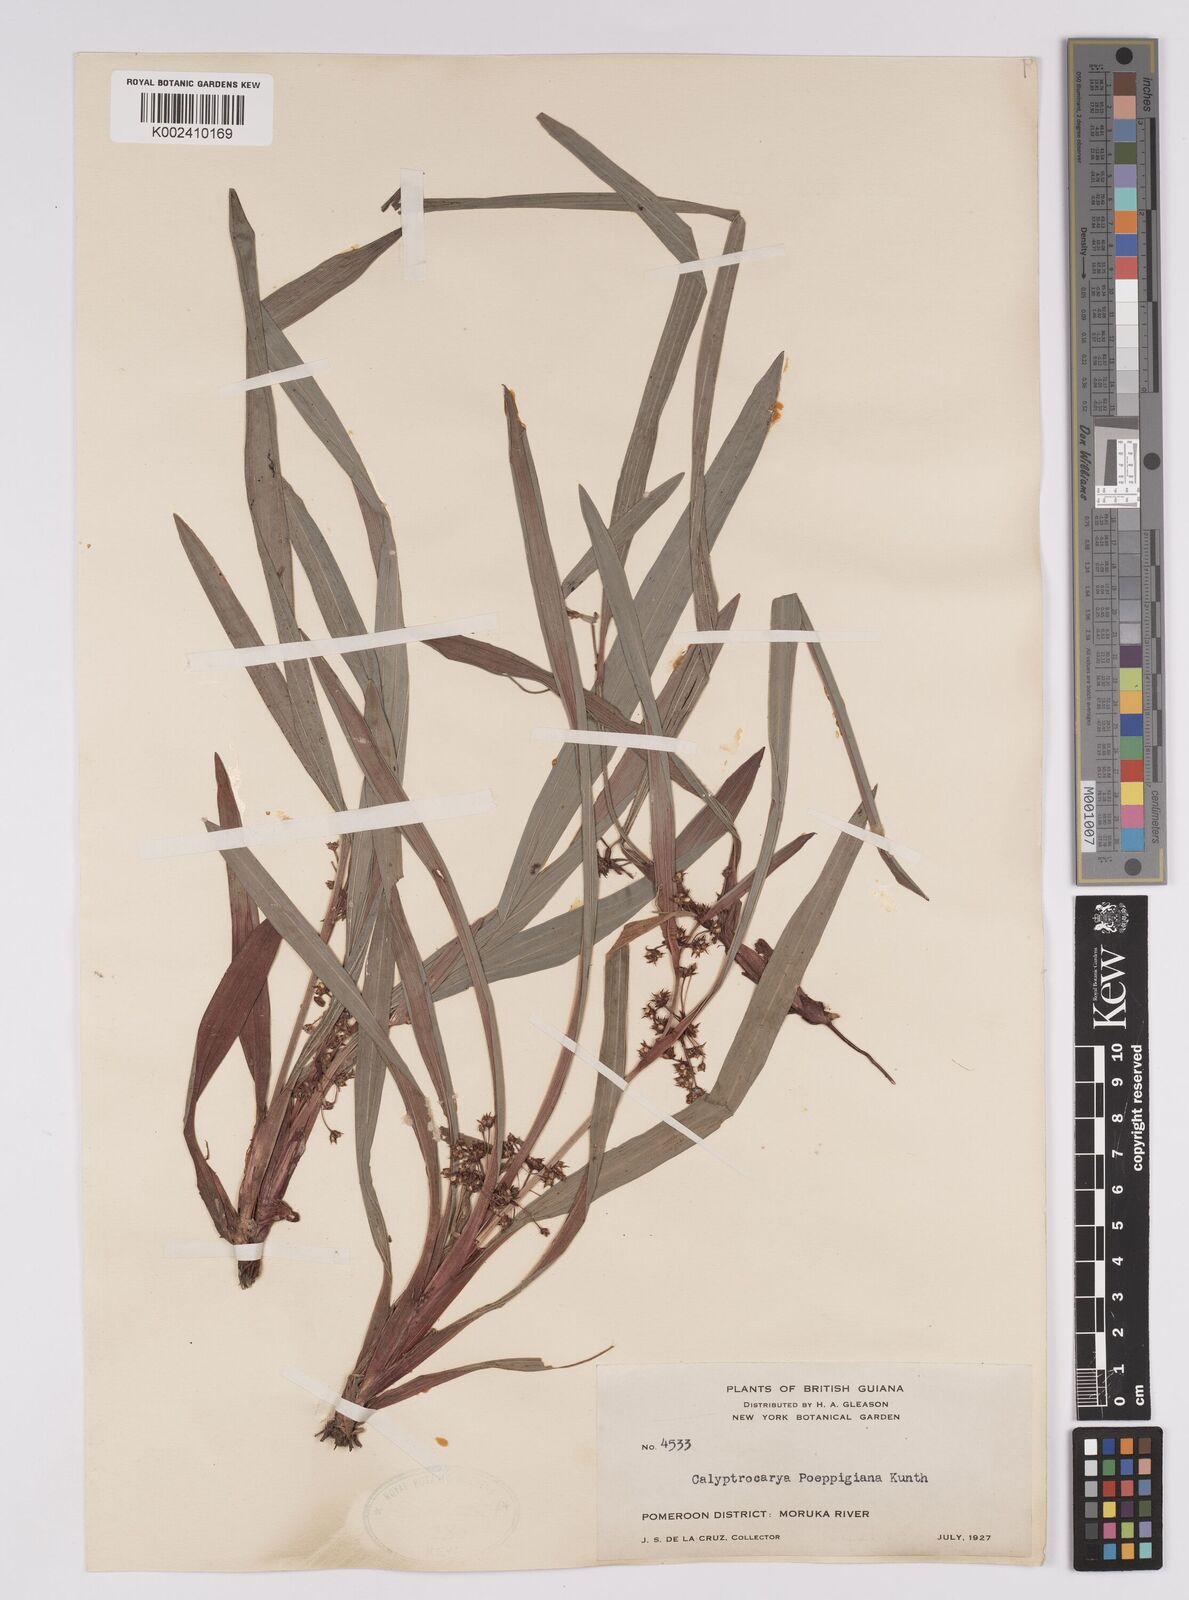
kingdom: Plantae
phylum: Tracheophyta
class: Liliopsida
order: Poales
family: Cyperaceae
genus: Calyptrocarya
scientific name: Calyptrocarya poeppigiana
